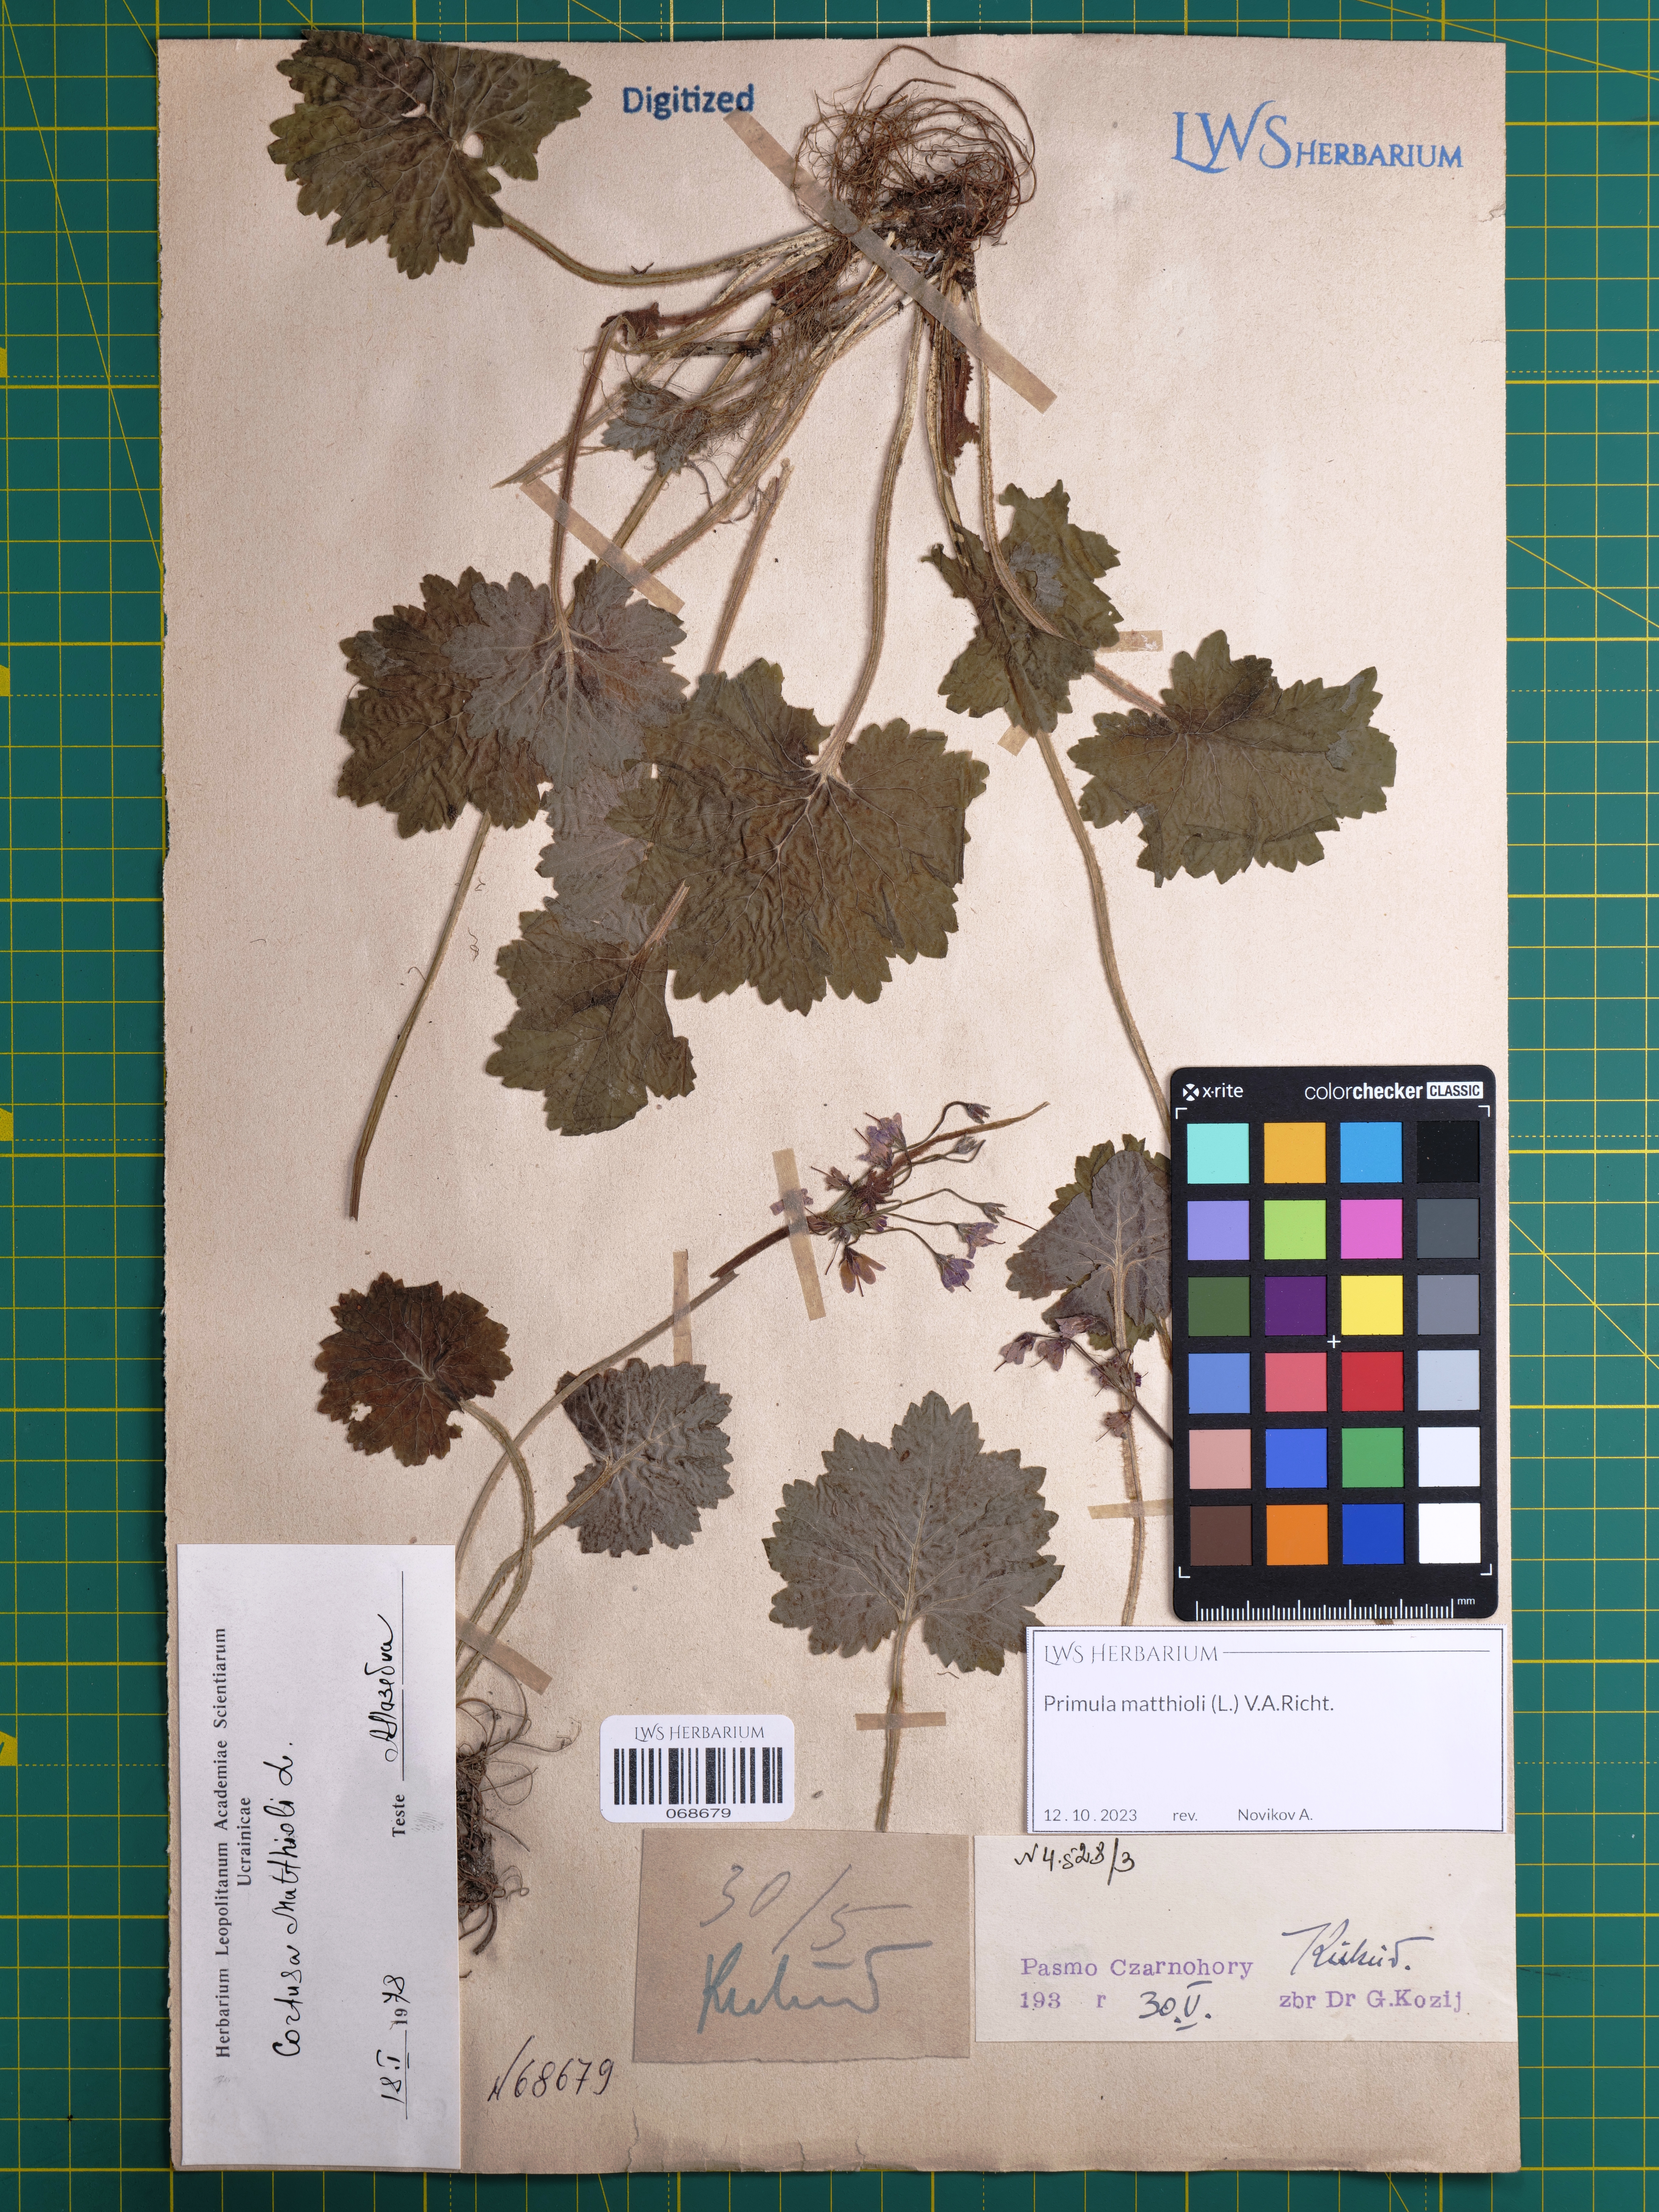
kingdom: Plantae
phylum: Tracheophyta
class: Magnoliopsida
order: Ericales
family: Primulaceae
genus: Primula
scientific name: Primula matthioli
